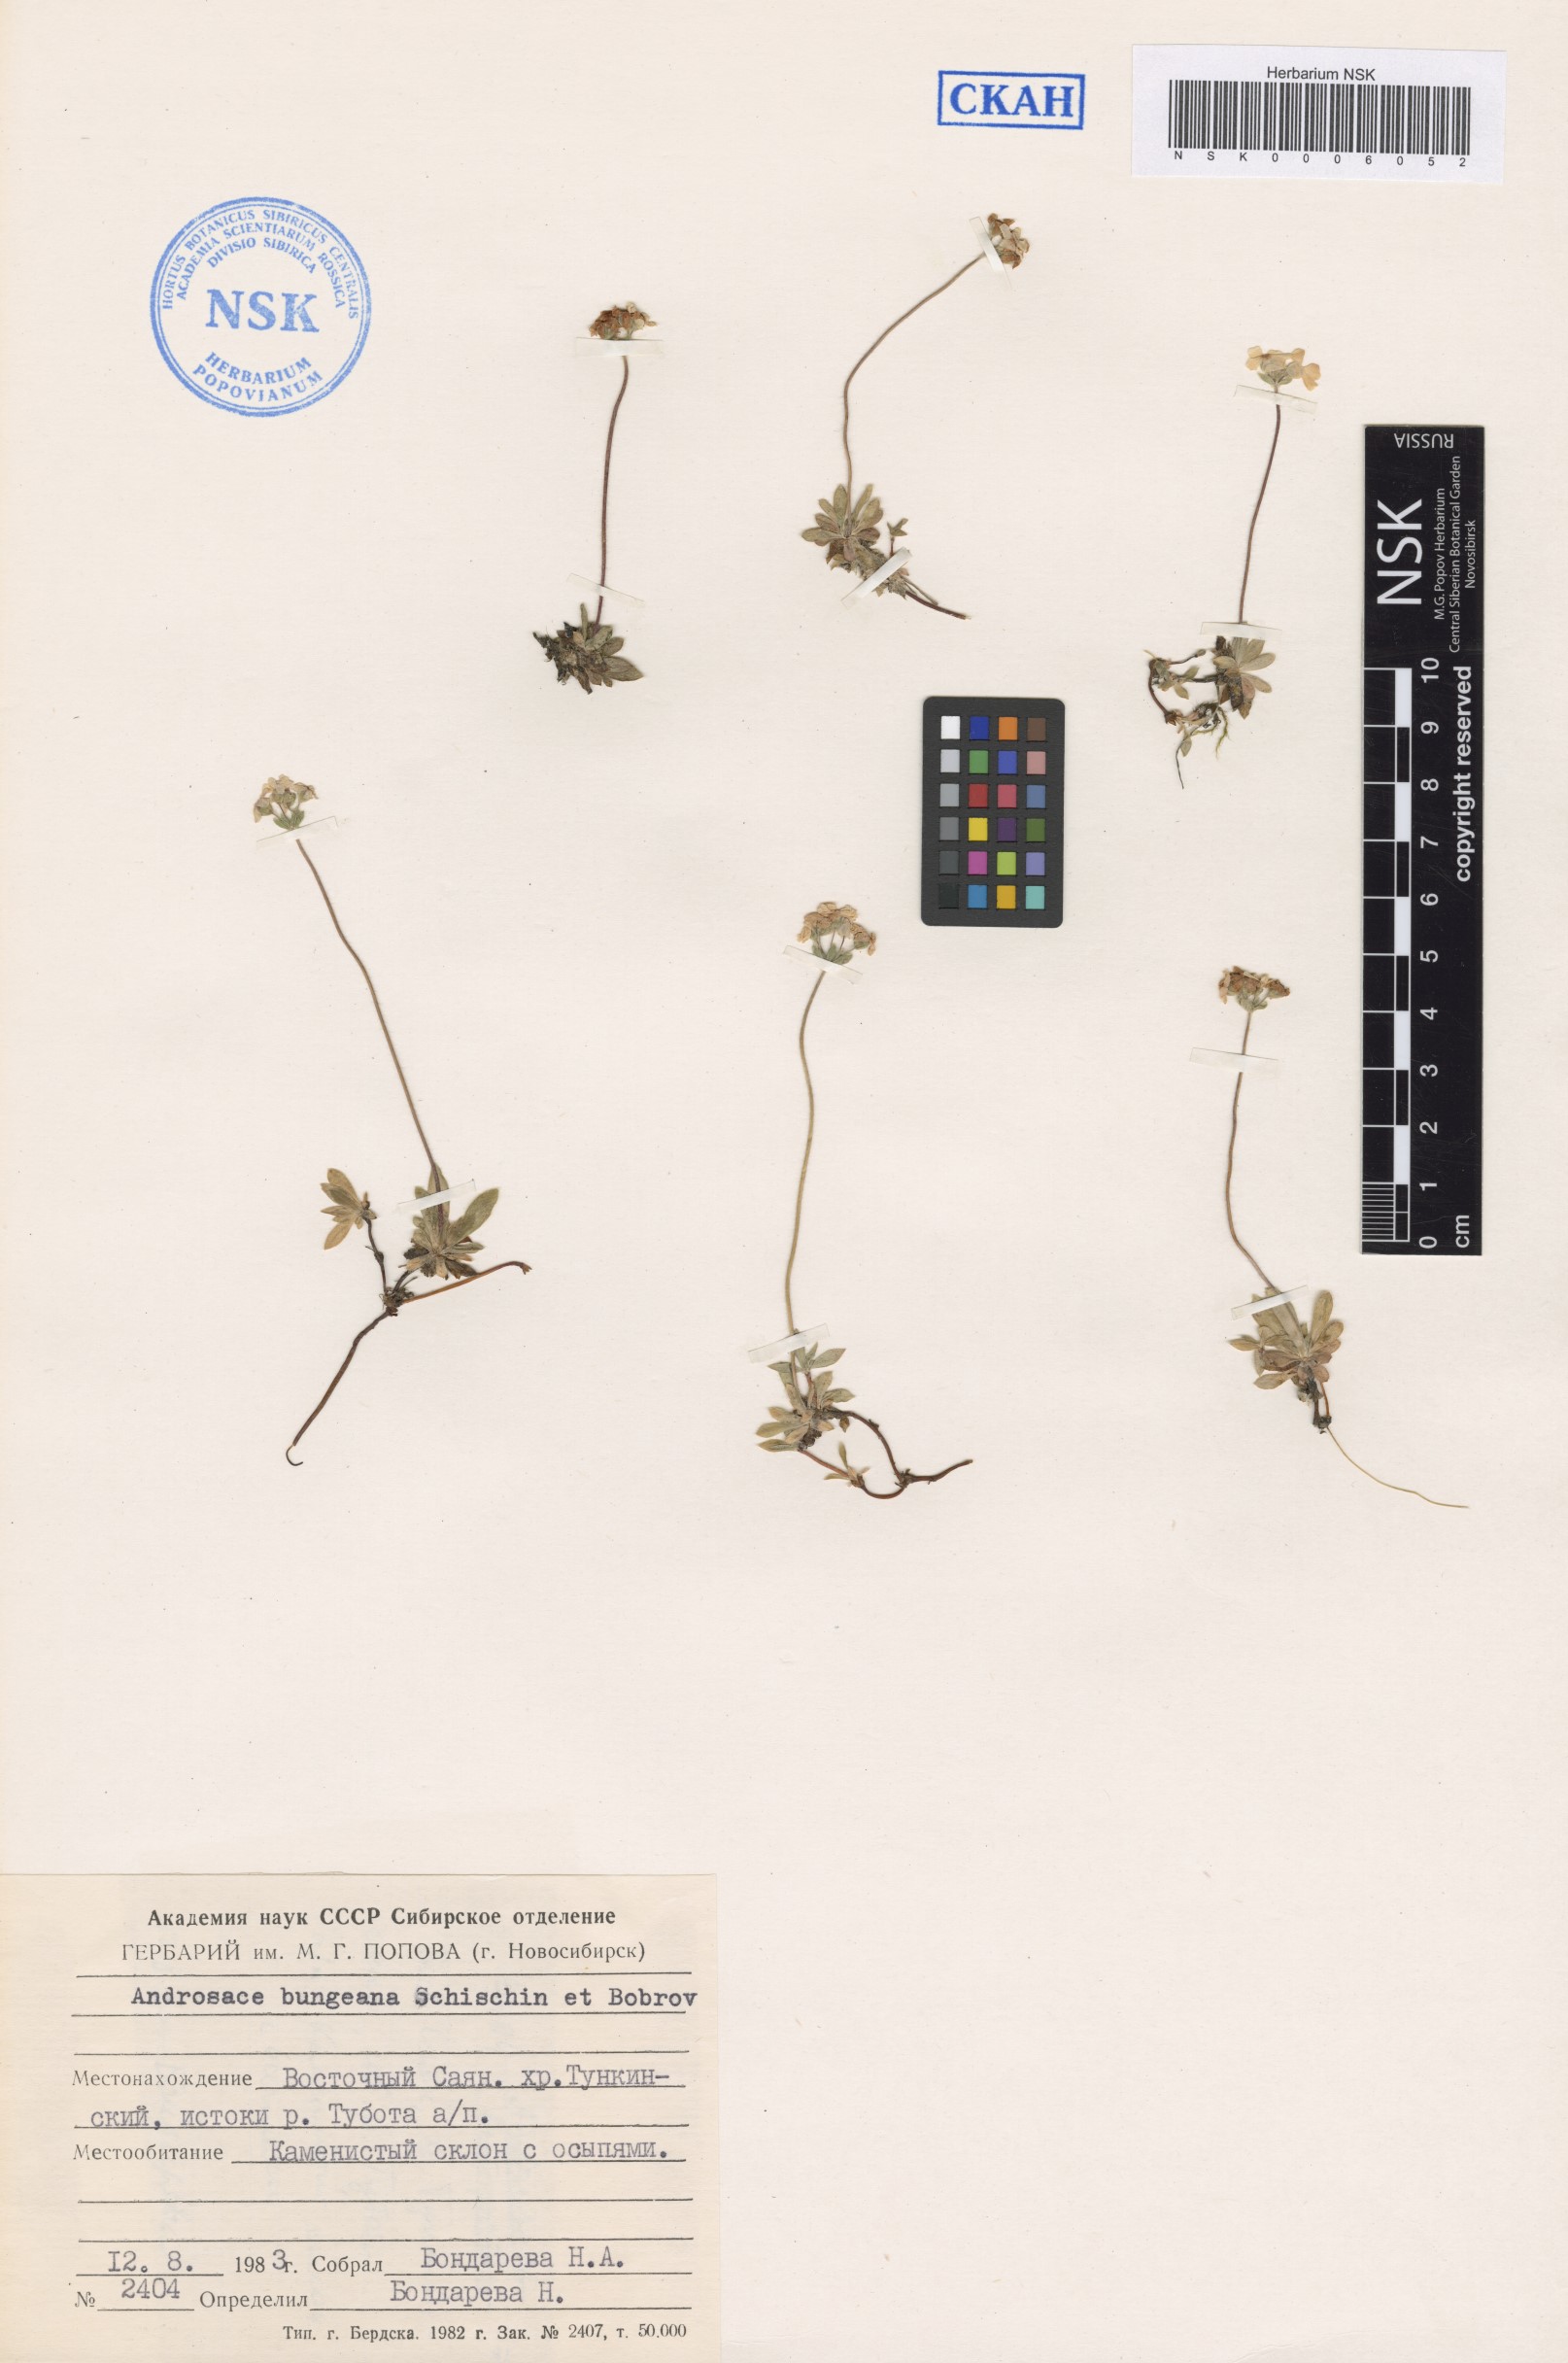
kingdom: Plantae
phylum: Tracheophyta
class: Magnoliopsida
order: Ericales
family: Primulaceae
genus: Androsace
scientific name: Androsace bungeana
